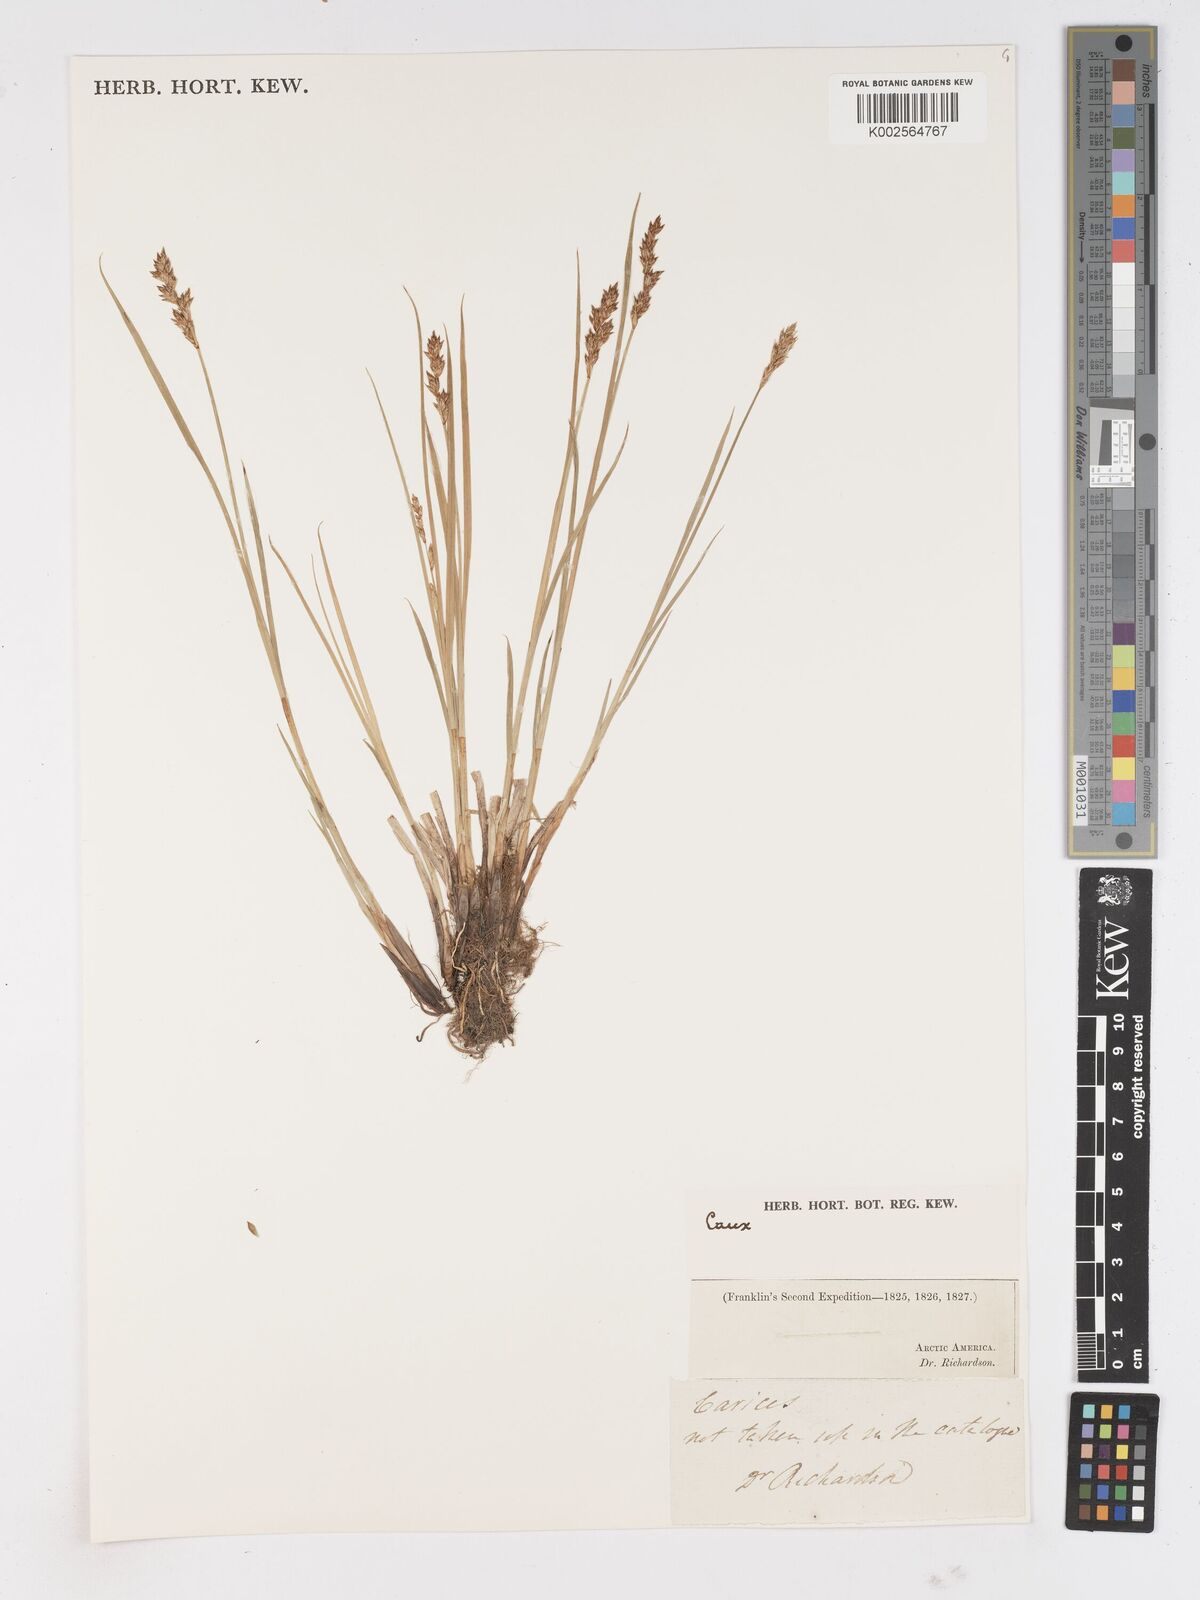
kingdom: Plantae
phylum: Tracheophyta
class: Liliopsida
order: Poales
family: Cyperaceae
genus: Carex
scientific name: Carex
